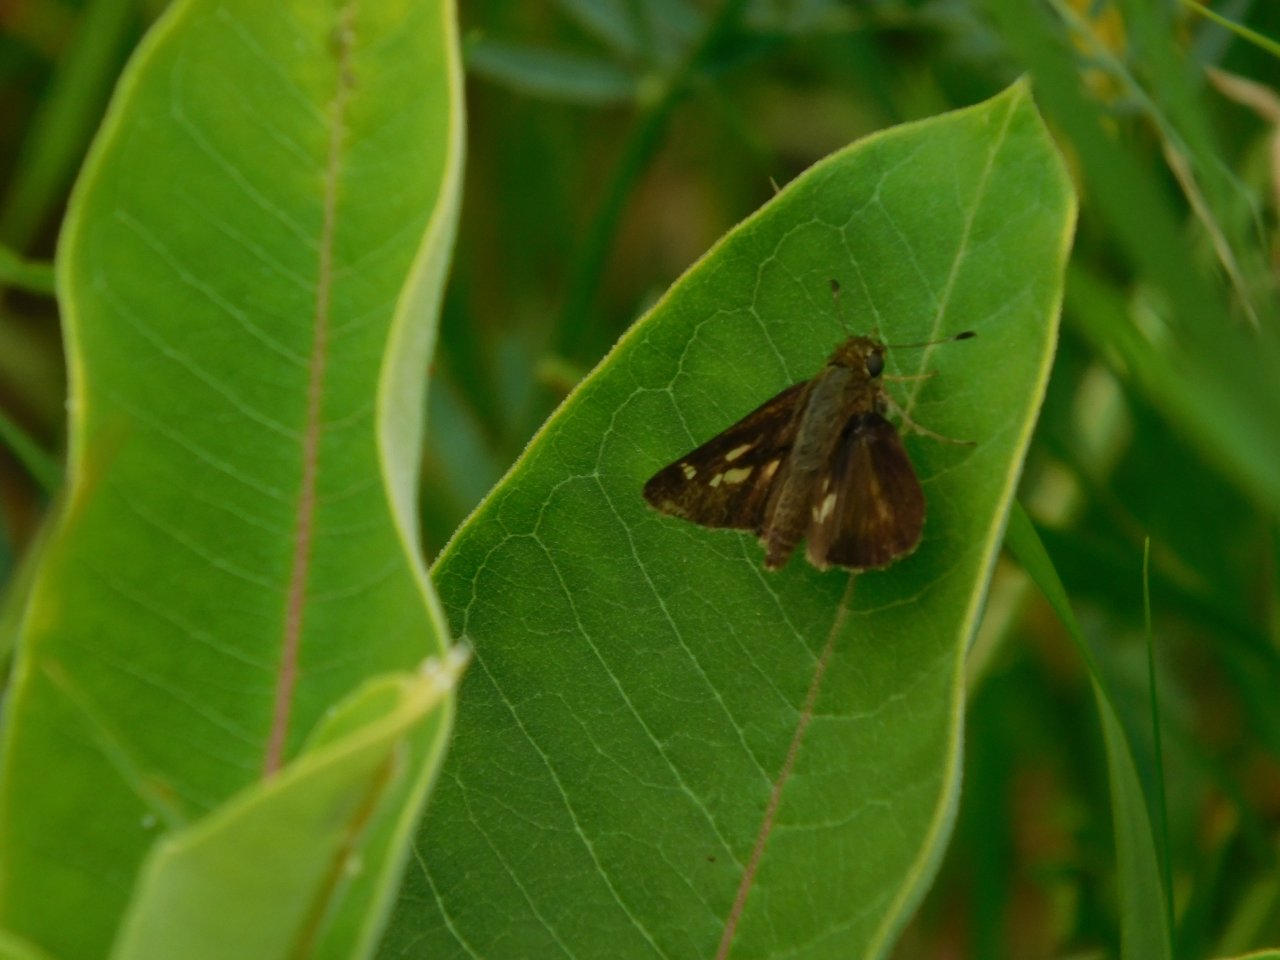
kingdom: Animalia
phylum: Arthropoda
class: Insecta
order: Lepidoptera
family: Hesperiidae
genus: Vernia
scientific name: Vernia verna
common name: Little Glassywing
